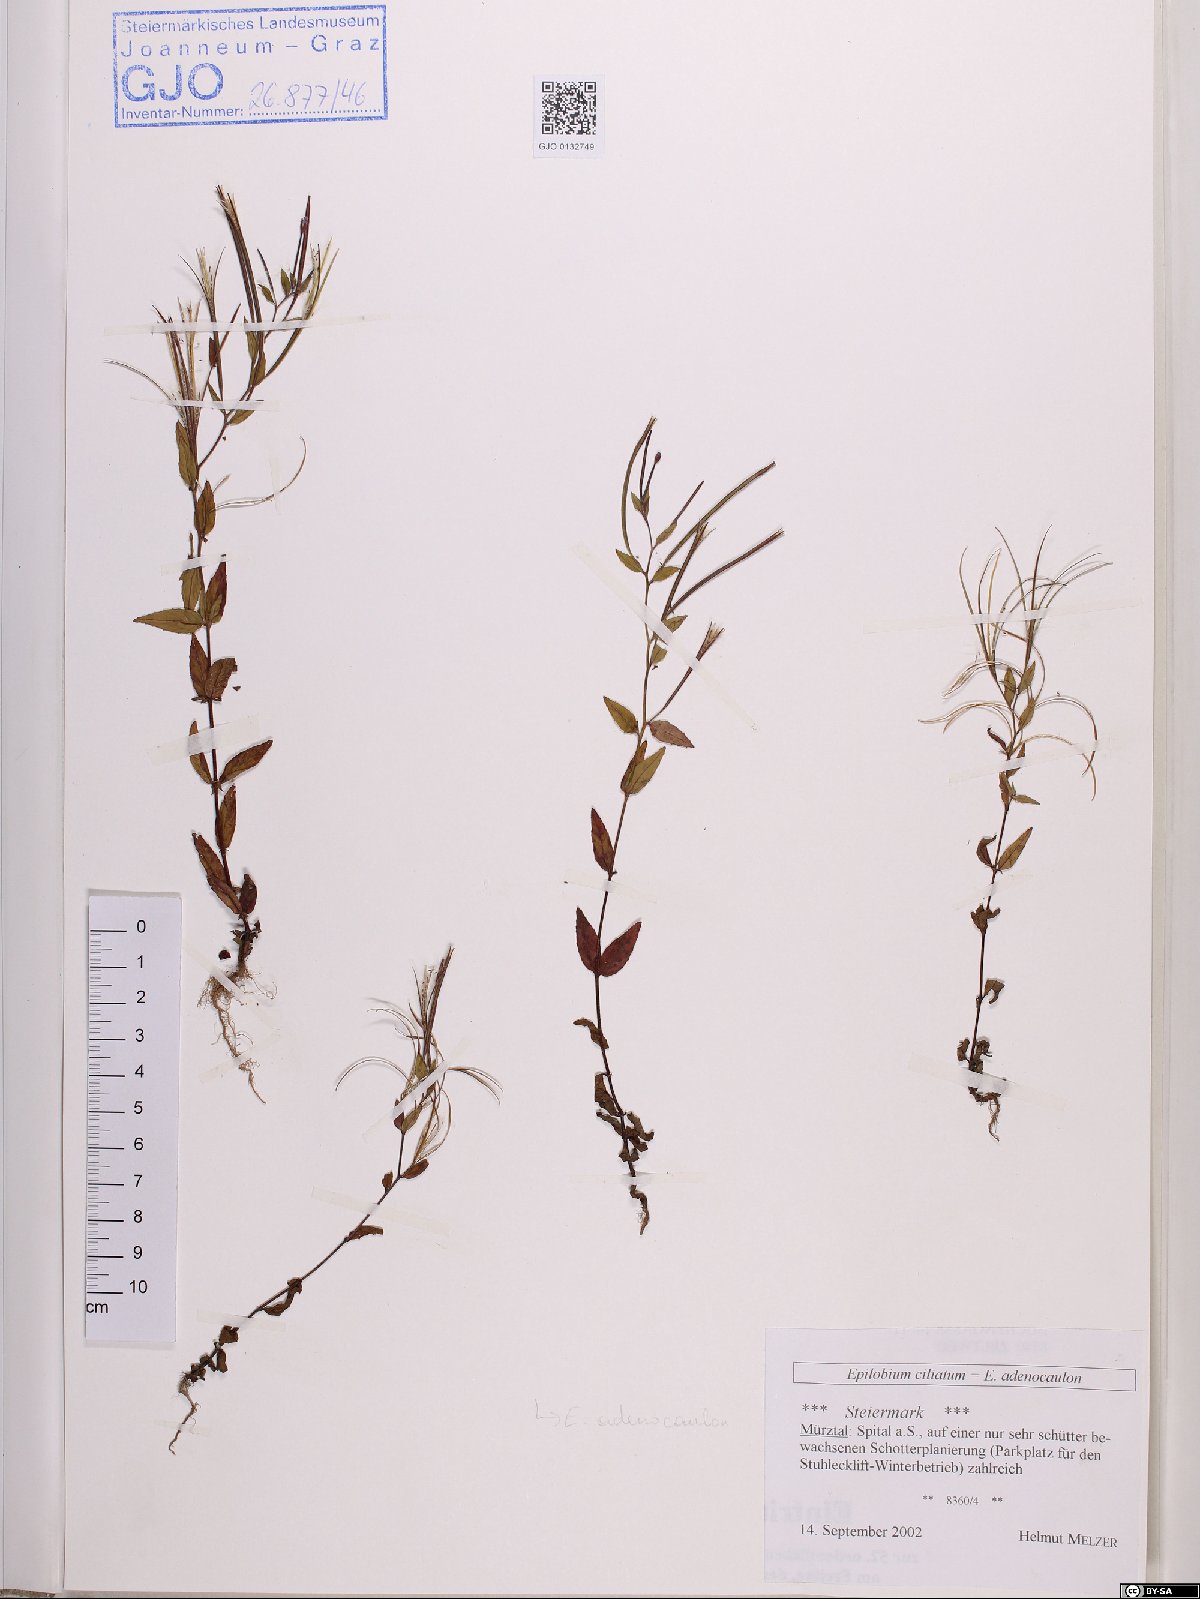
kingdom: Plantae
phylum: Tracheophyta
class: Magnoliopsida
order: Myrtales
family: Onagraceae
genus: Epilobium
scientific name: Epilobium ciliatum
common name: American willowherb
